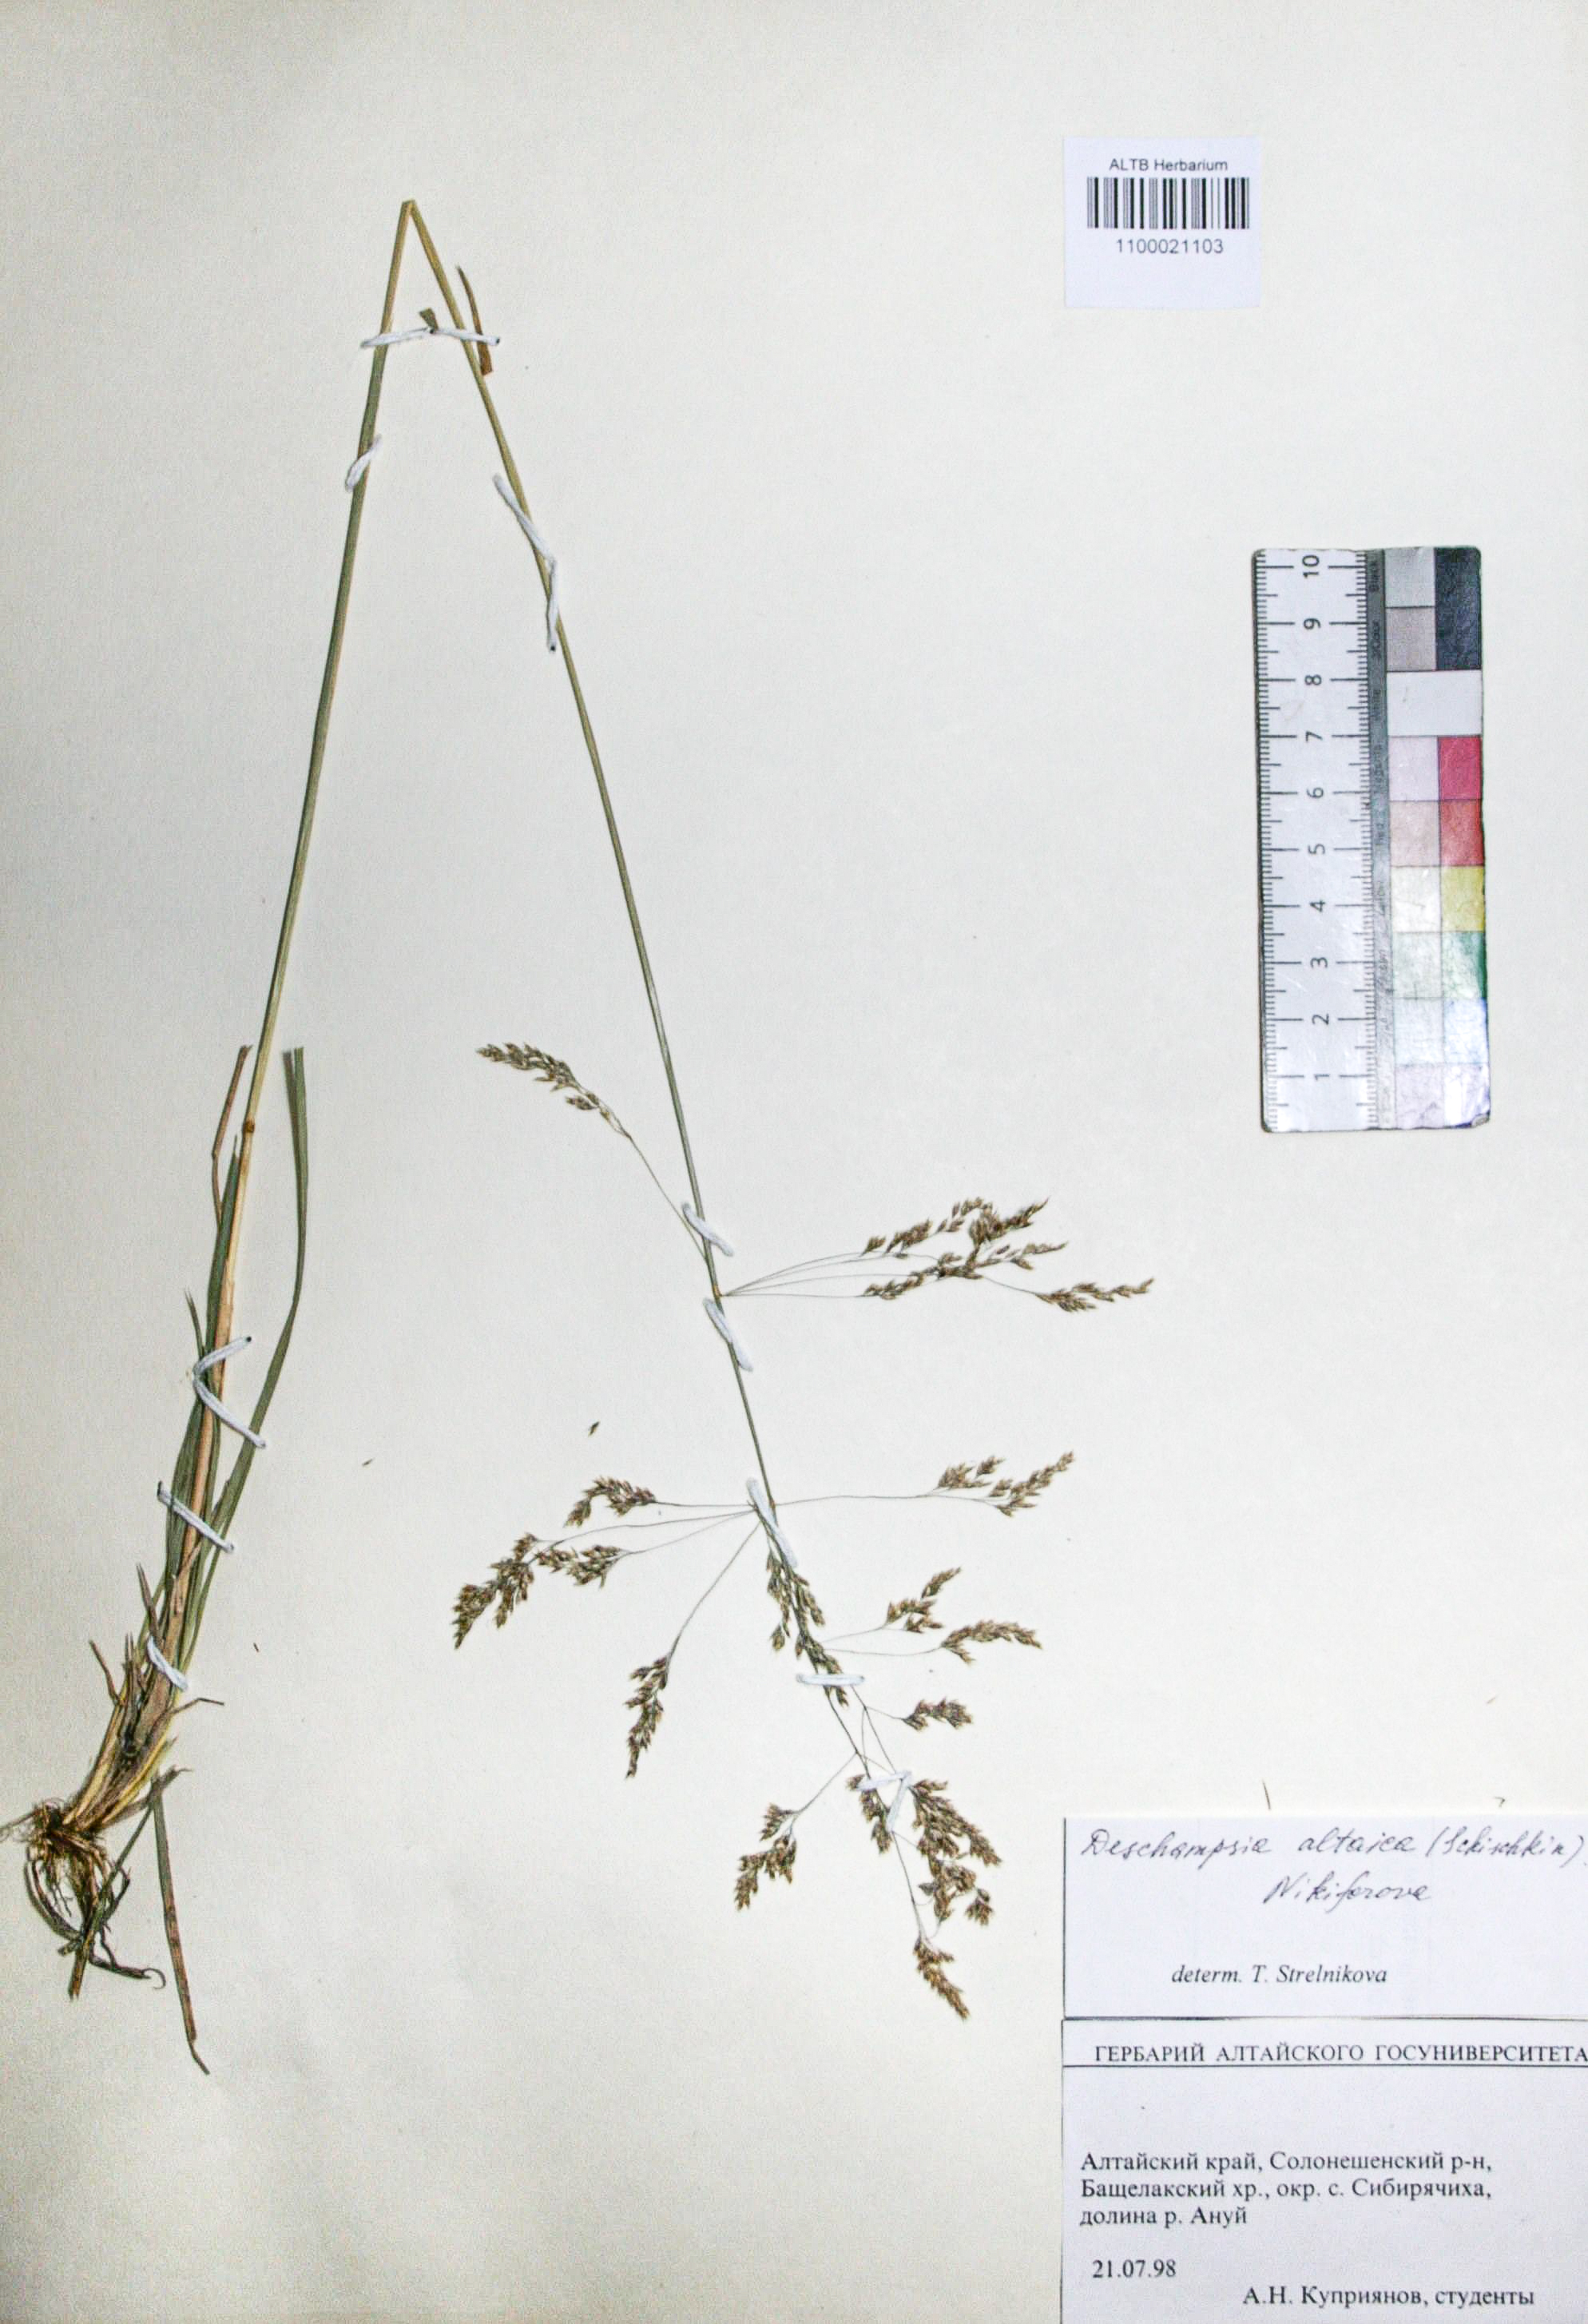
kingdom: Plantae
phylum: Tracheophyta
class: Liliopsida
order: Poales
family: Poaceae
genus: Deschampsia
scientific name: Deschampsia cespitosa
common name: Tufted hair-grass
